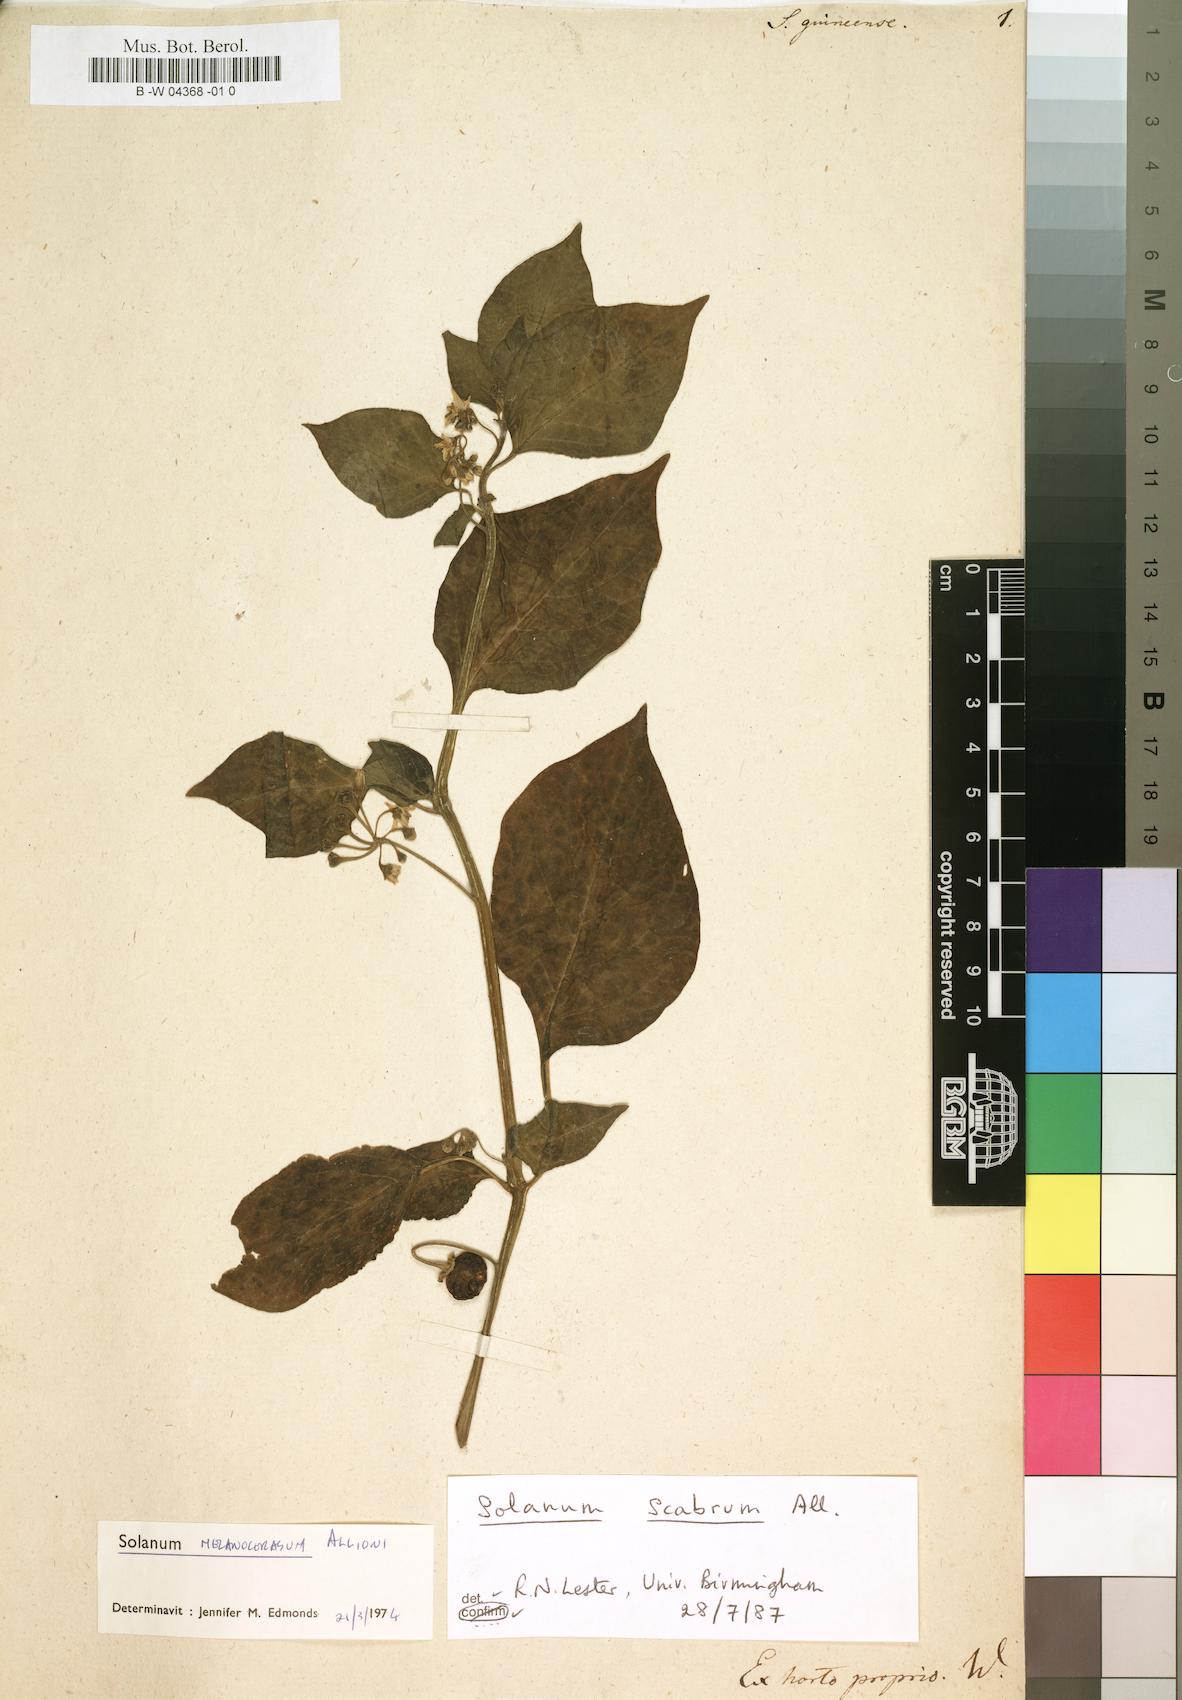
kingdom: Plantae
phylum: Tracheophyta
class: Magnoliopsida
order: Solanales
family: Solanaceae
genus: Solanum
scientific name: Solanum guineense
